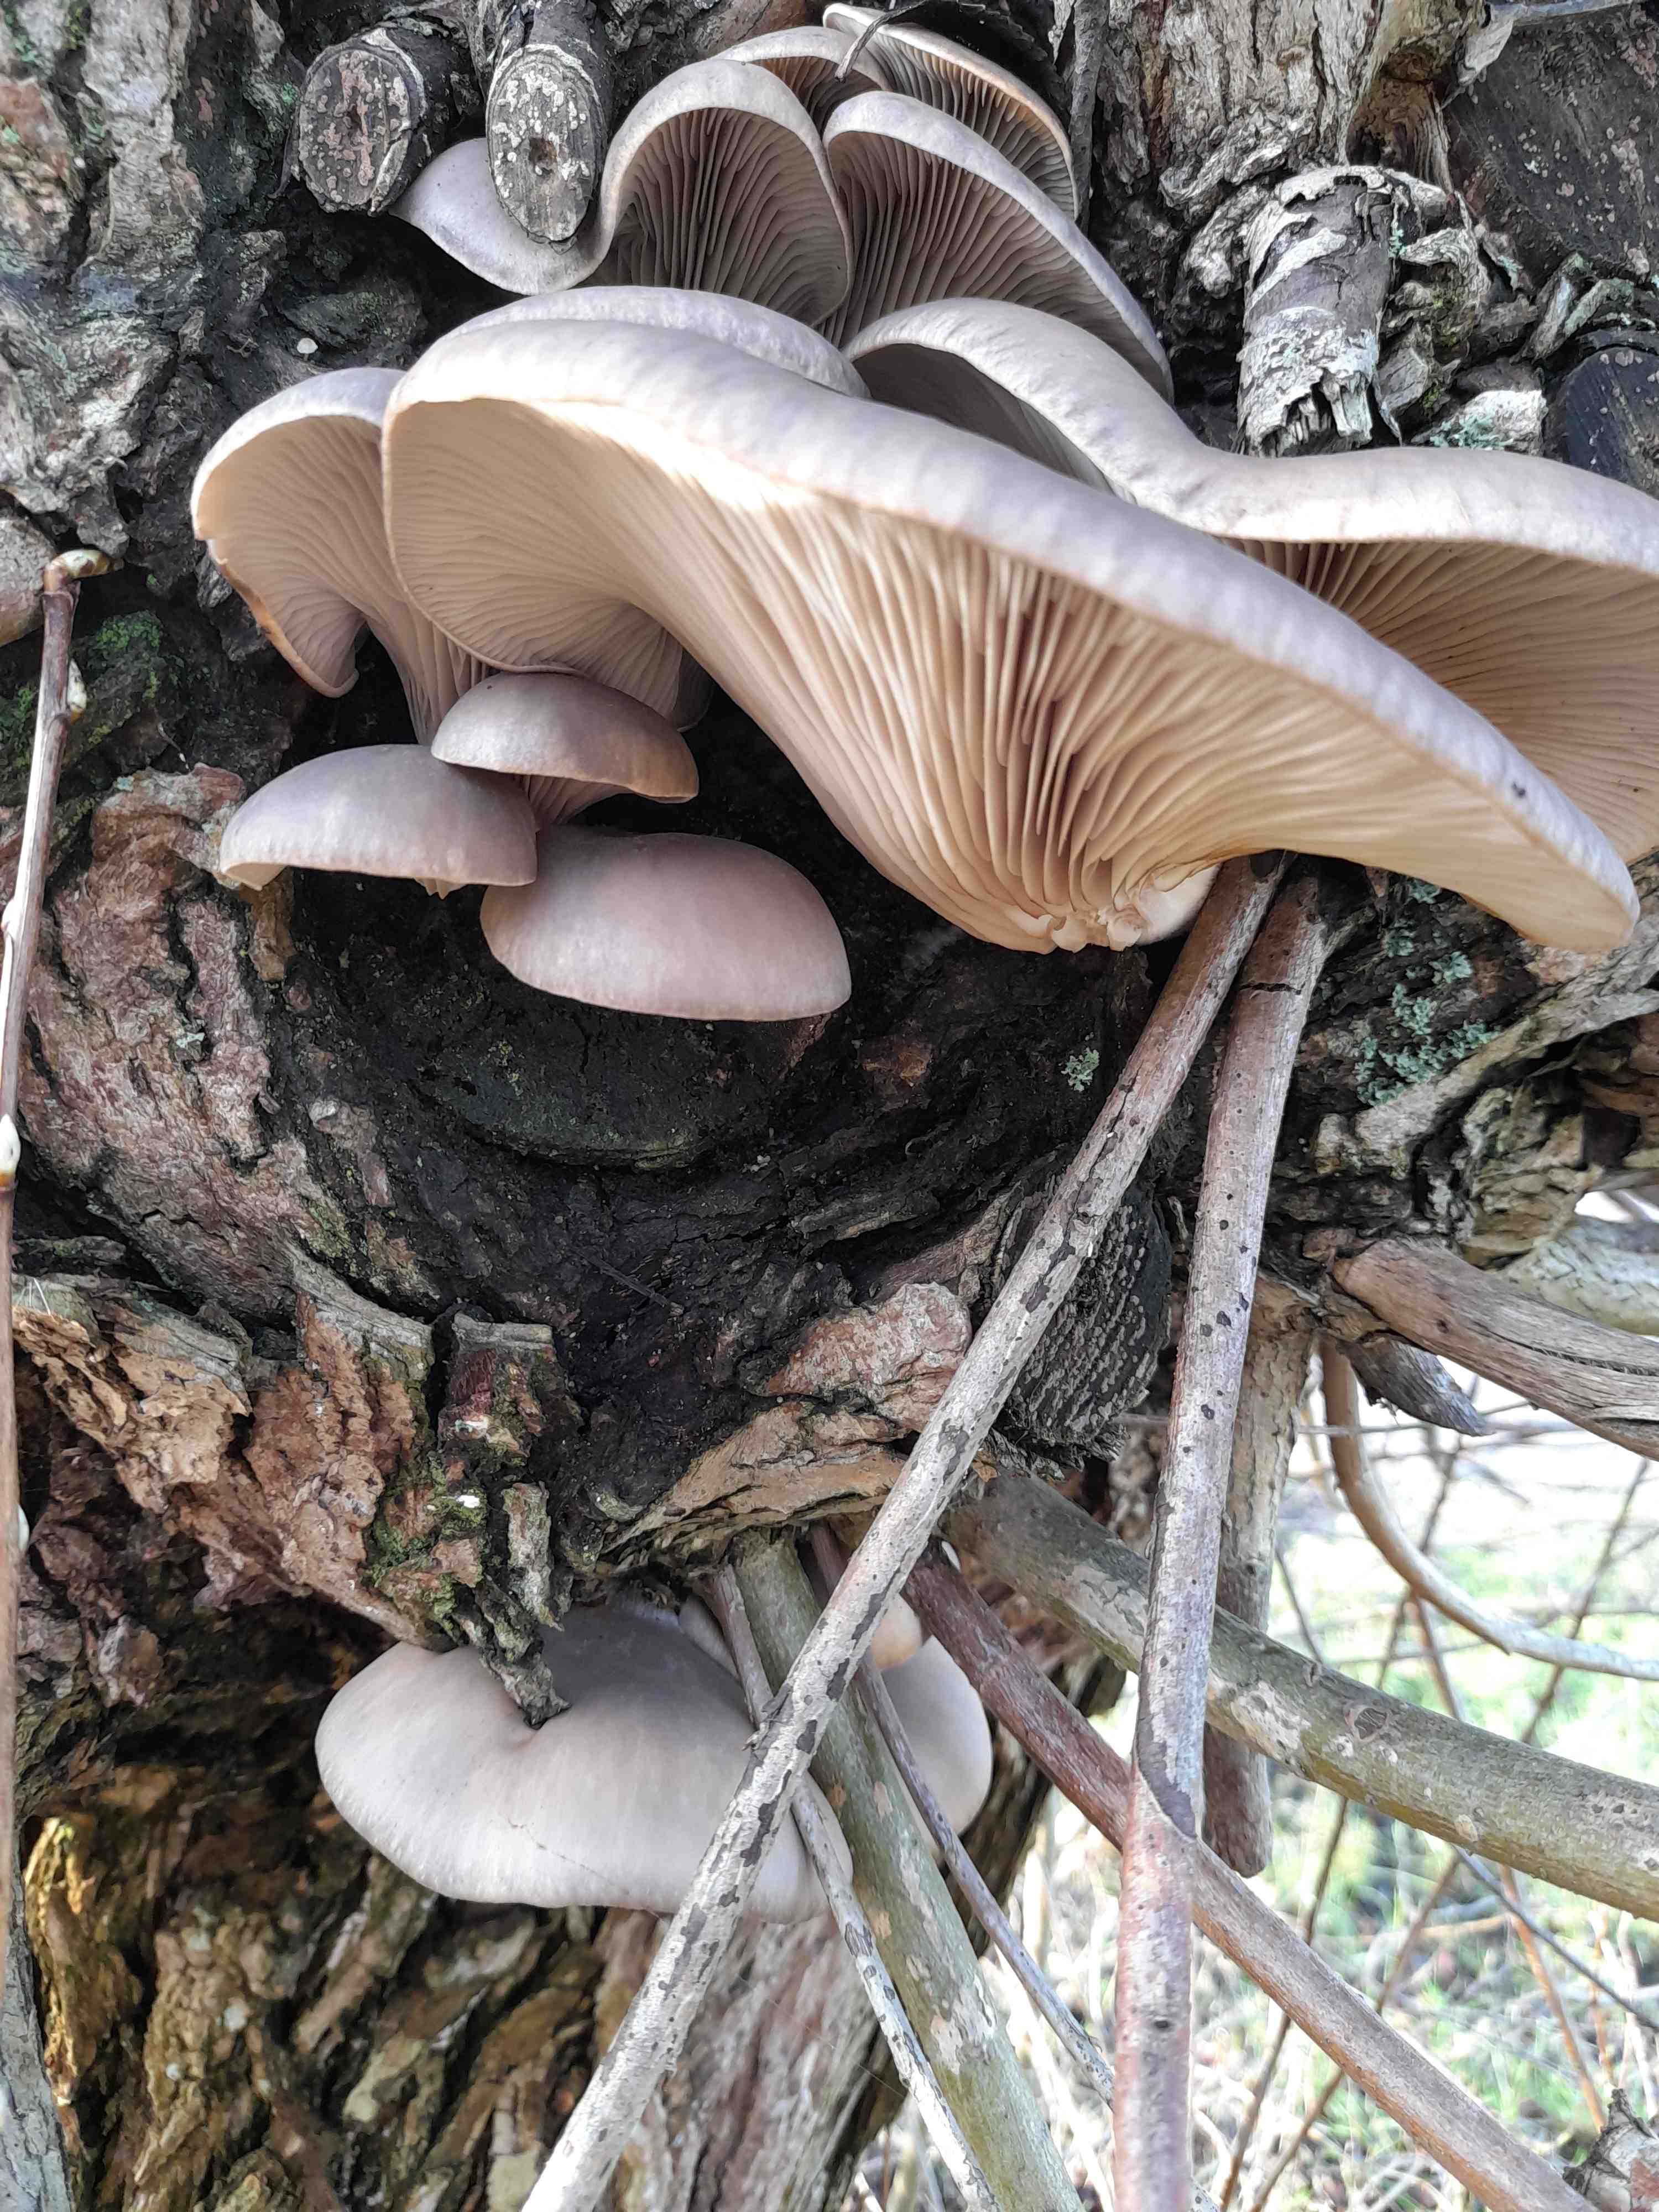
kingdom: Fungi
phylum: Basidiomycota
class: Agaricomycetes
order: Agaricales
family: Pleurotaceae
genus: Pleurotus
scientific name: Pleurotus ostreatus
